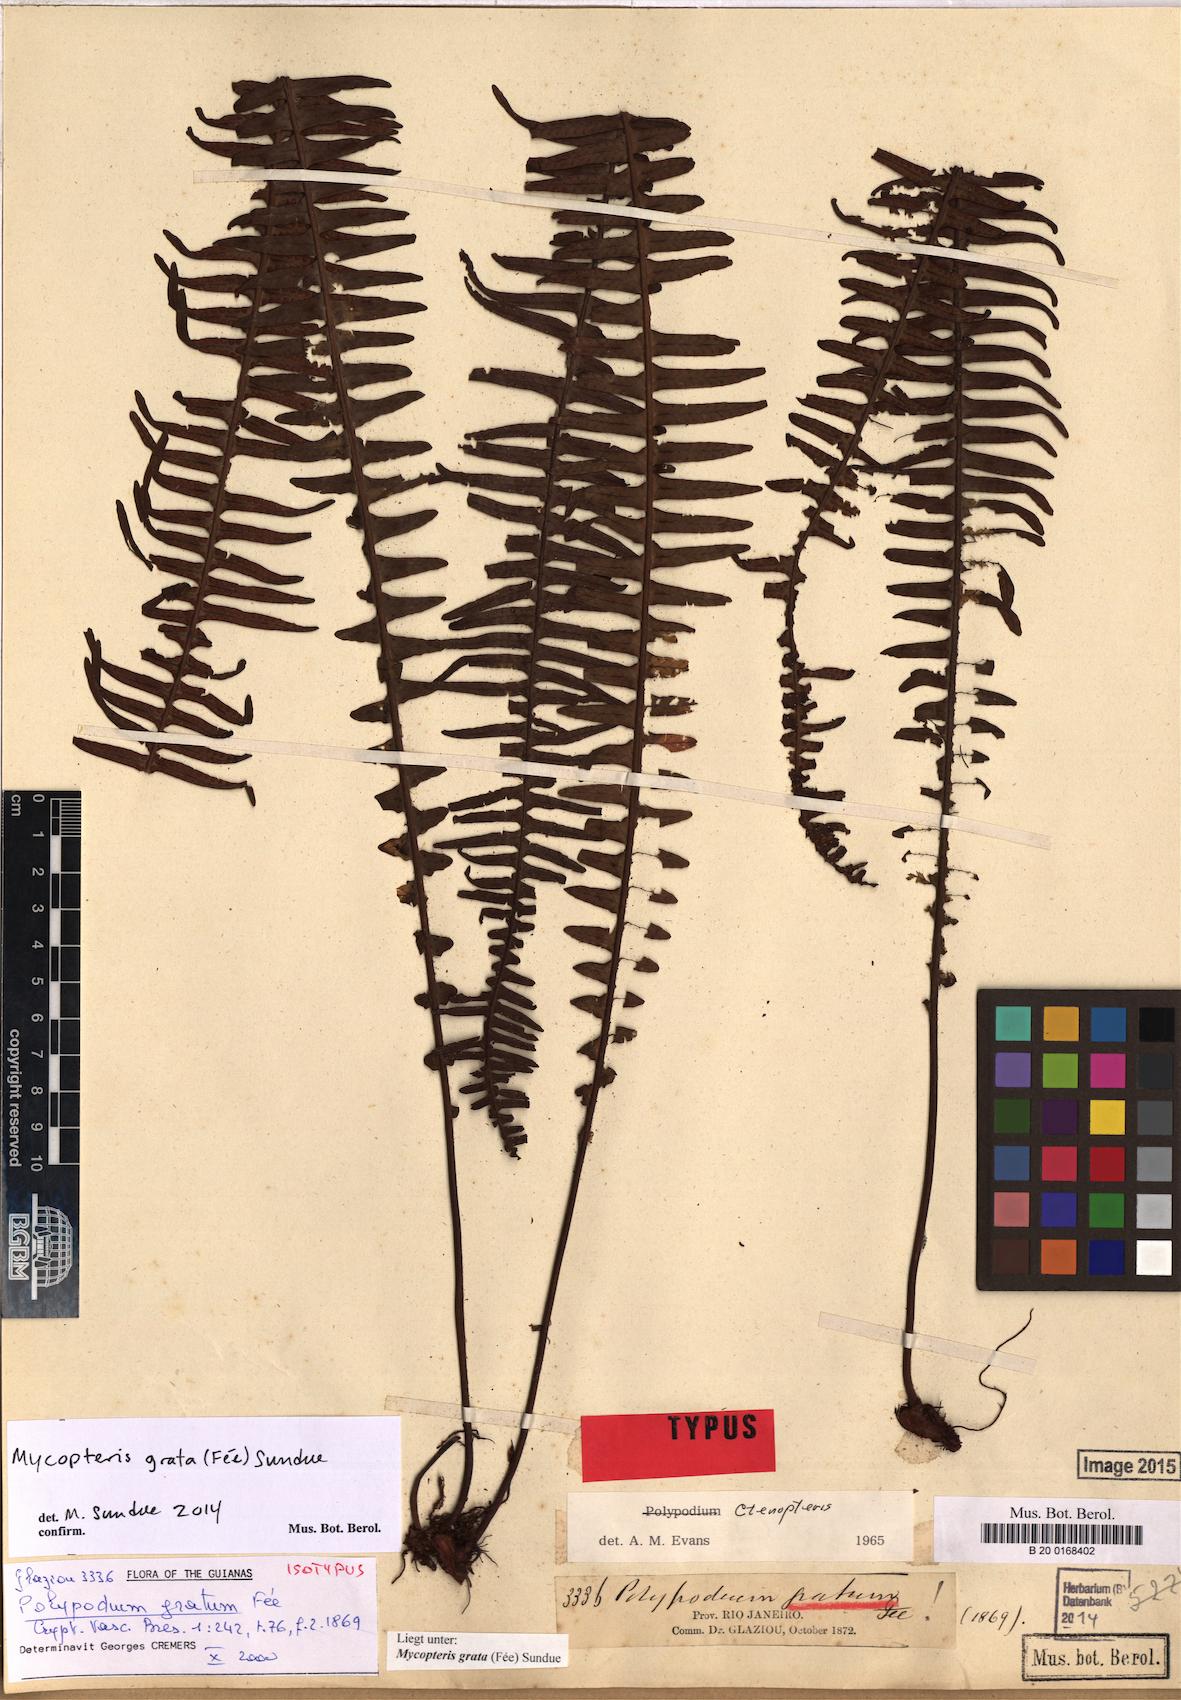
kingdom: Plantae
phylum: Tracheophyta
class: Polypodiopsida
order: Polypodiales
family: Polypodiaceae
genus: Mycopteris
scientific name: Mycopteris grata
